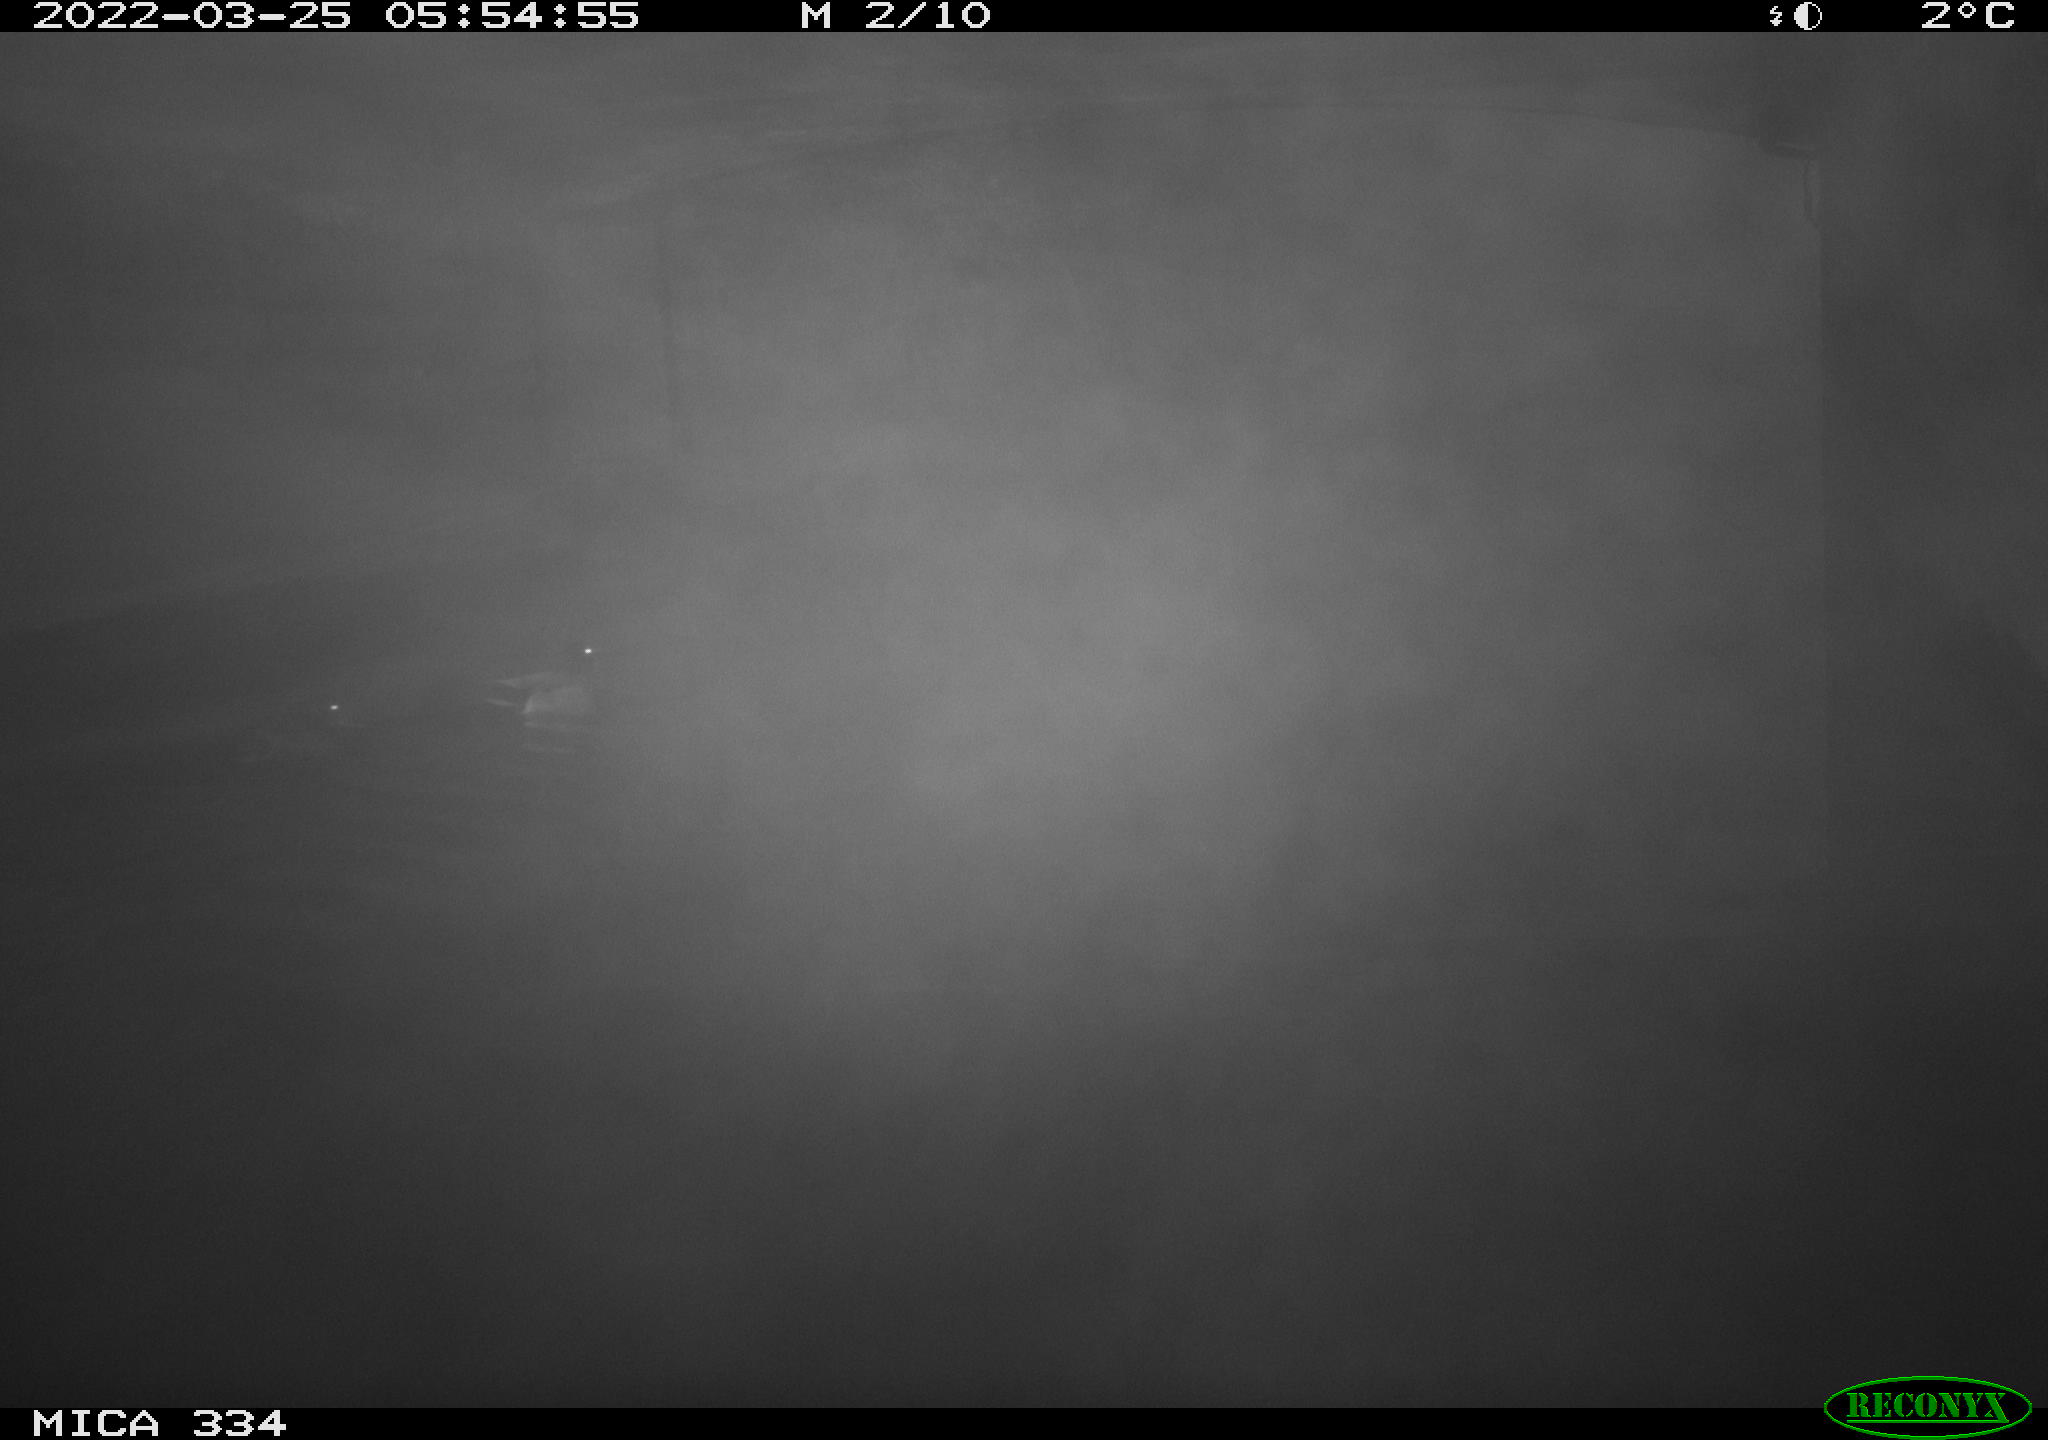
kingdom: Animalia
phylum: Chordata
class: Aves
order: Anseriformes
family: Anatidae
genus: Anas
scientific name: Anas platyrhynchos
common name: Mallard
